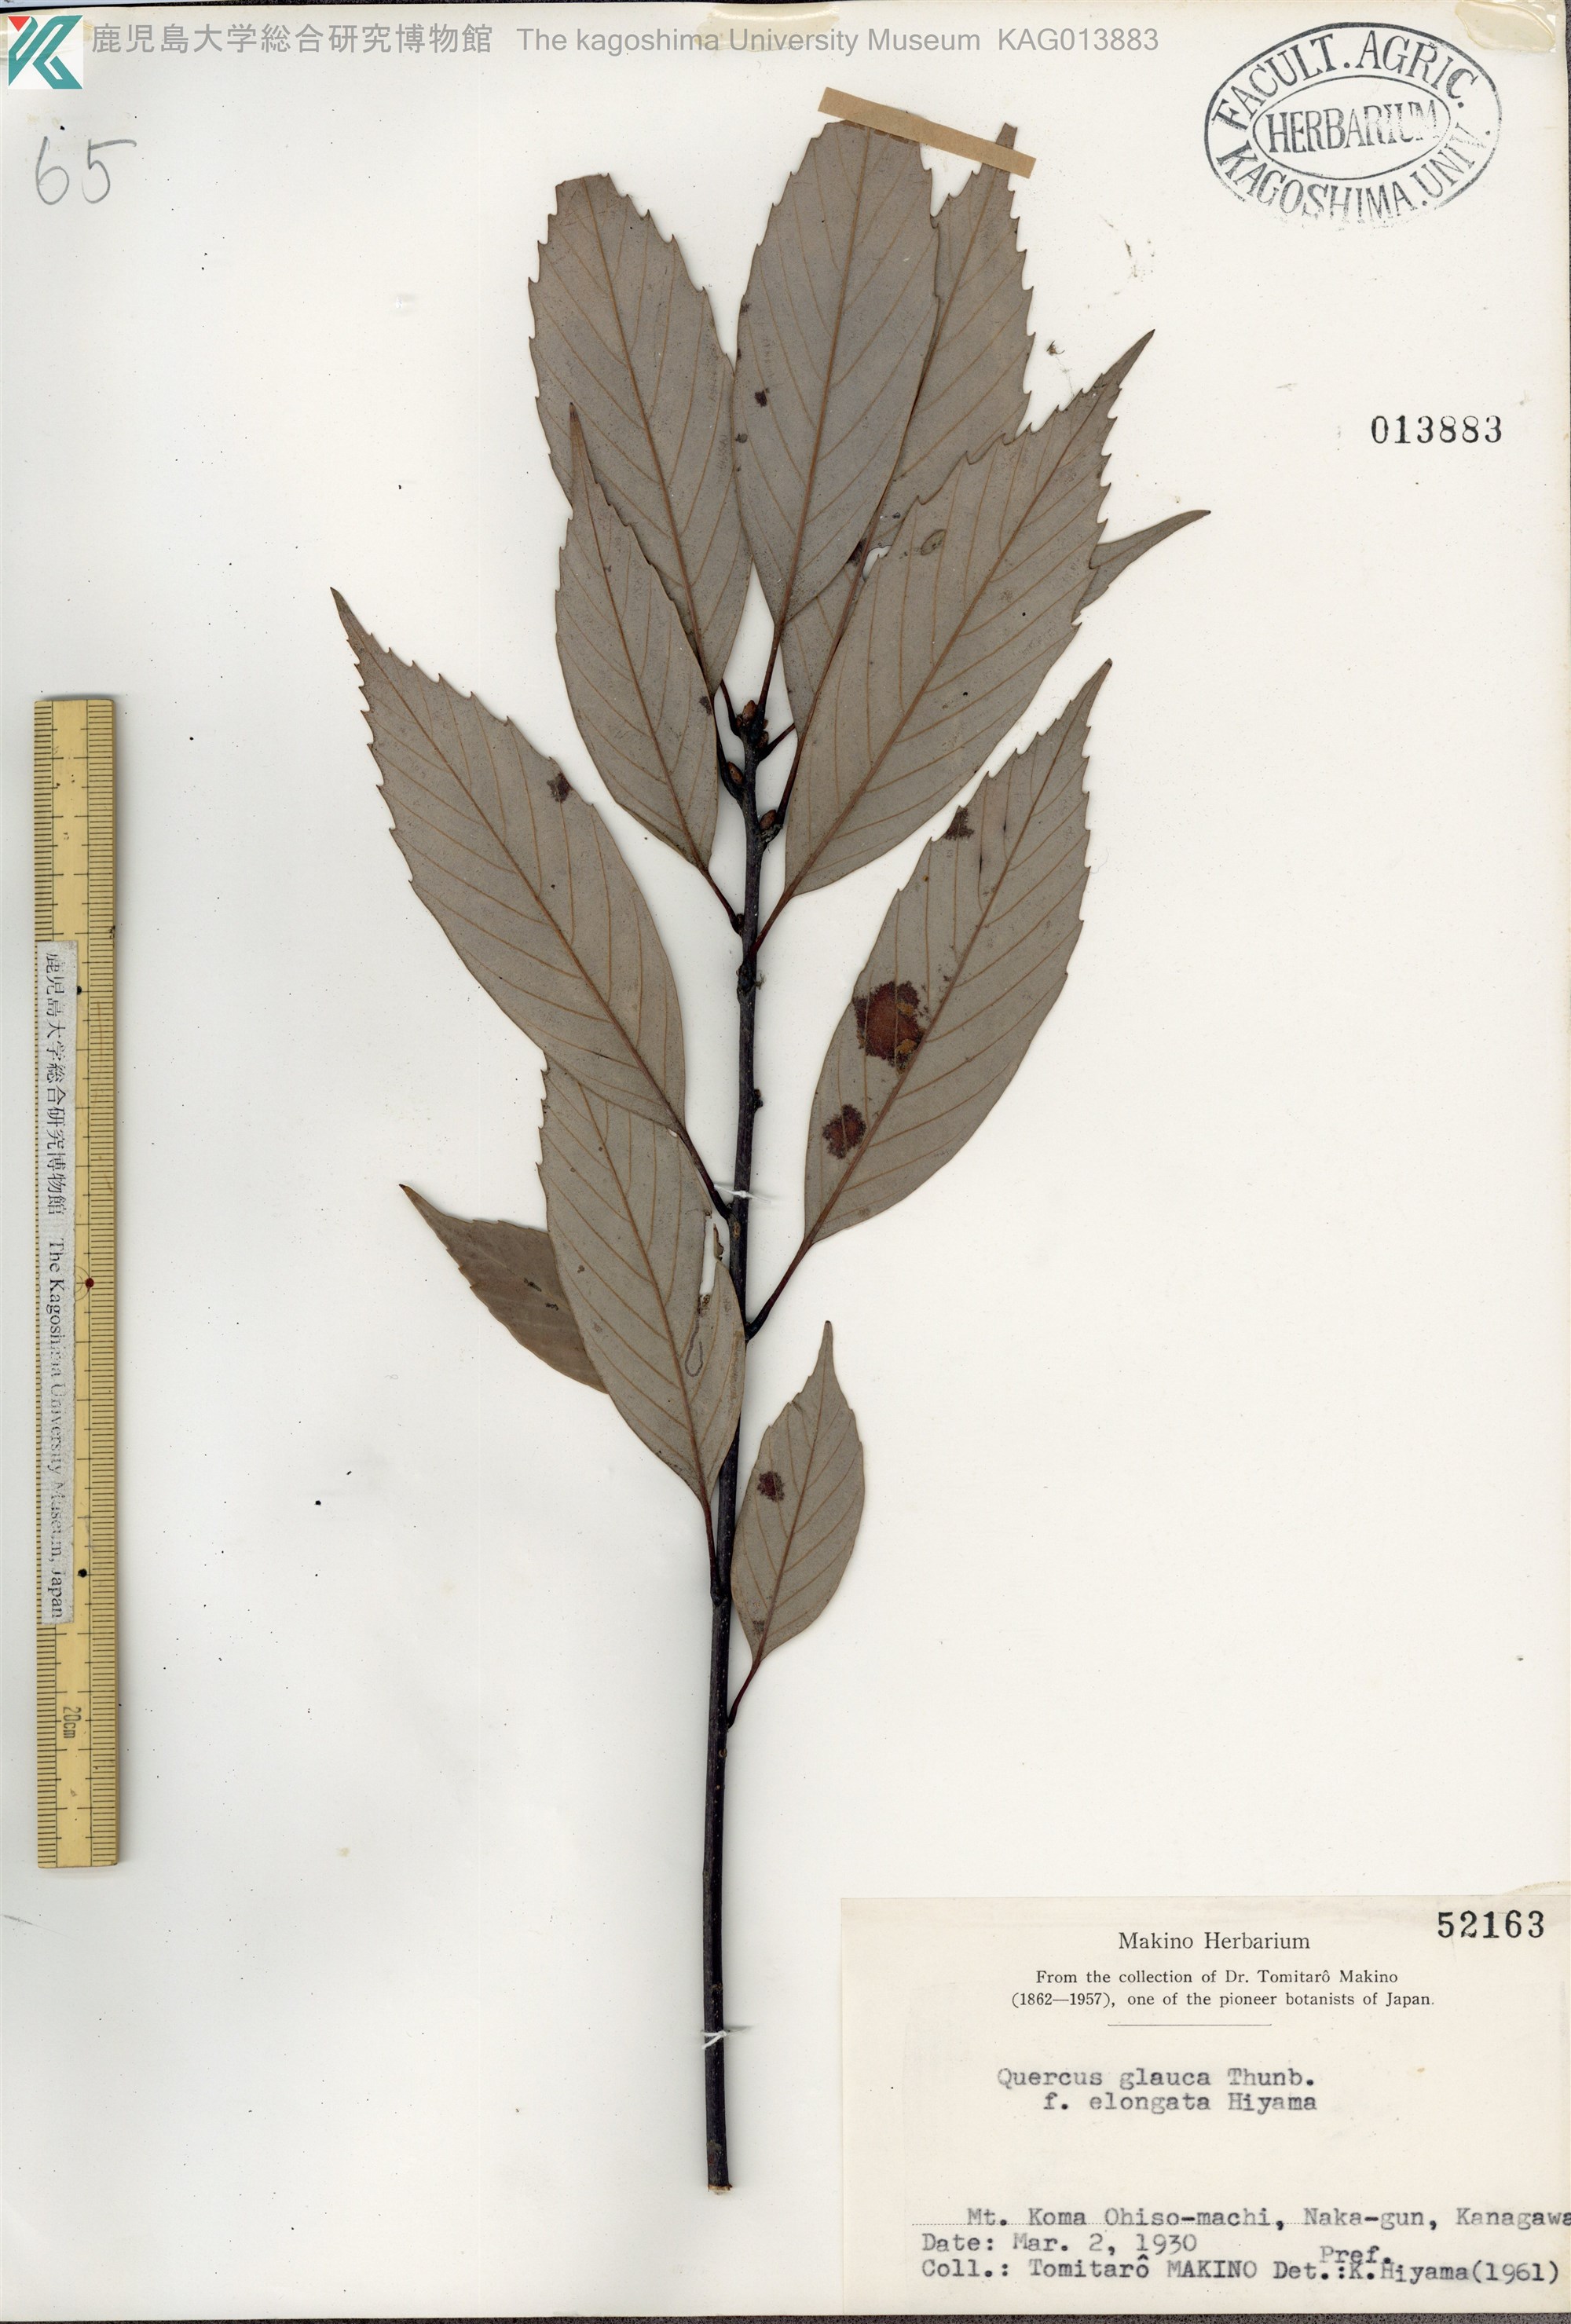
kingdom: Plantae
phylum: Tracheophyta
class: Magnoliopsida
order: Fagales
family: Fagaceae
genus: Quercus
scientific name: Quercus glauca
